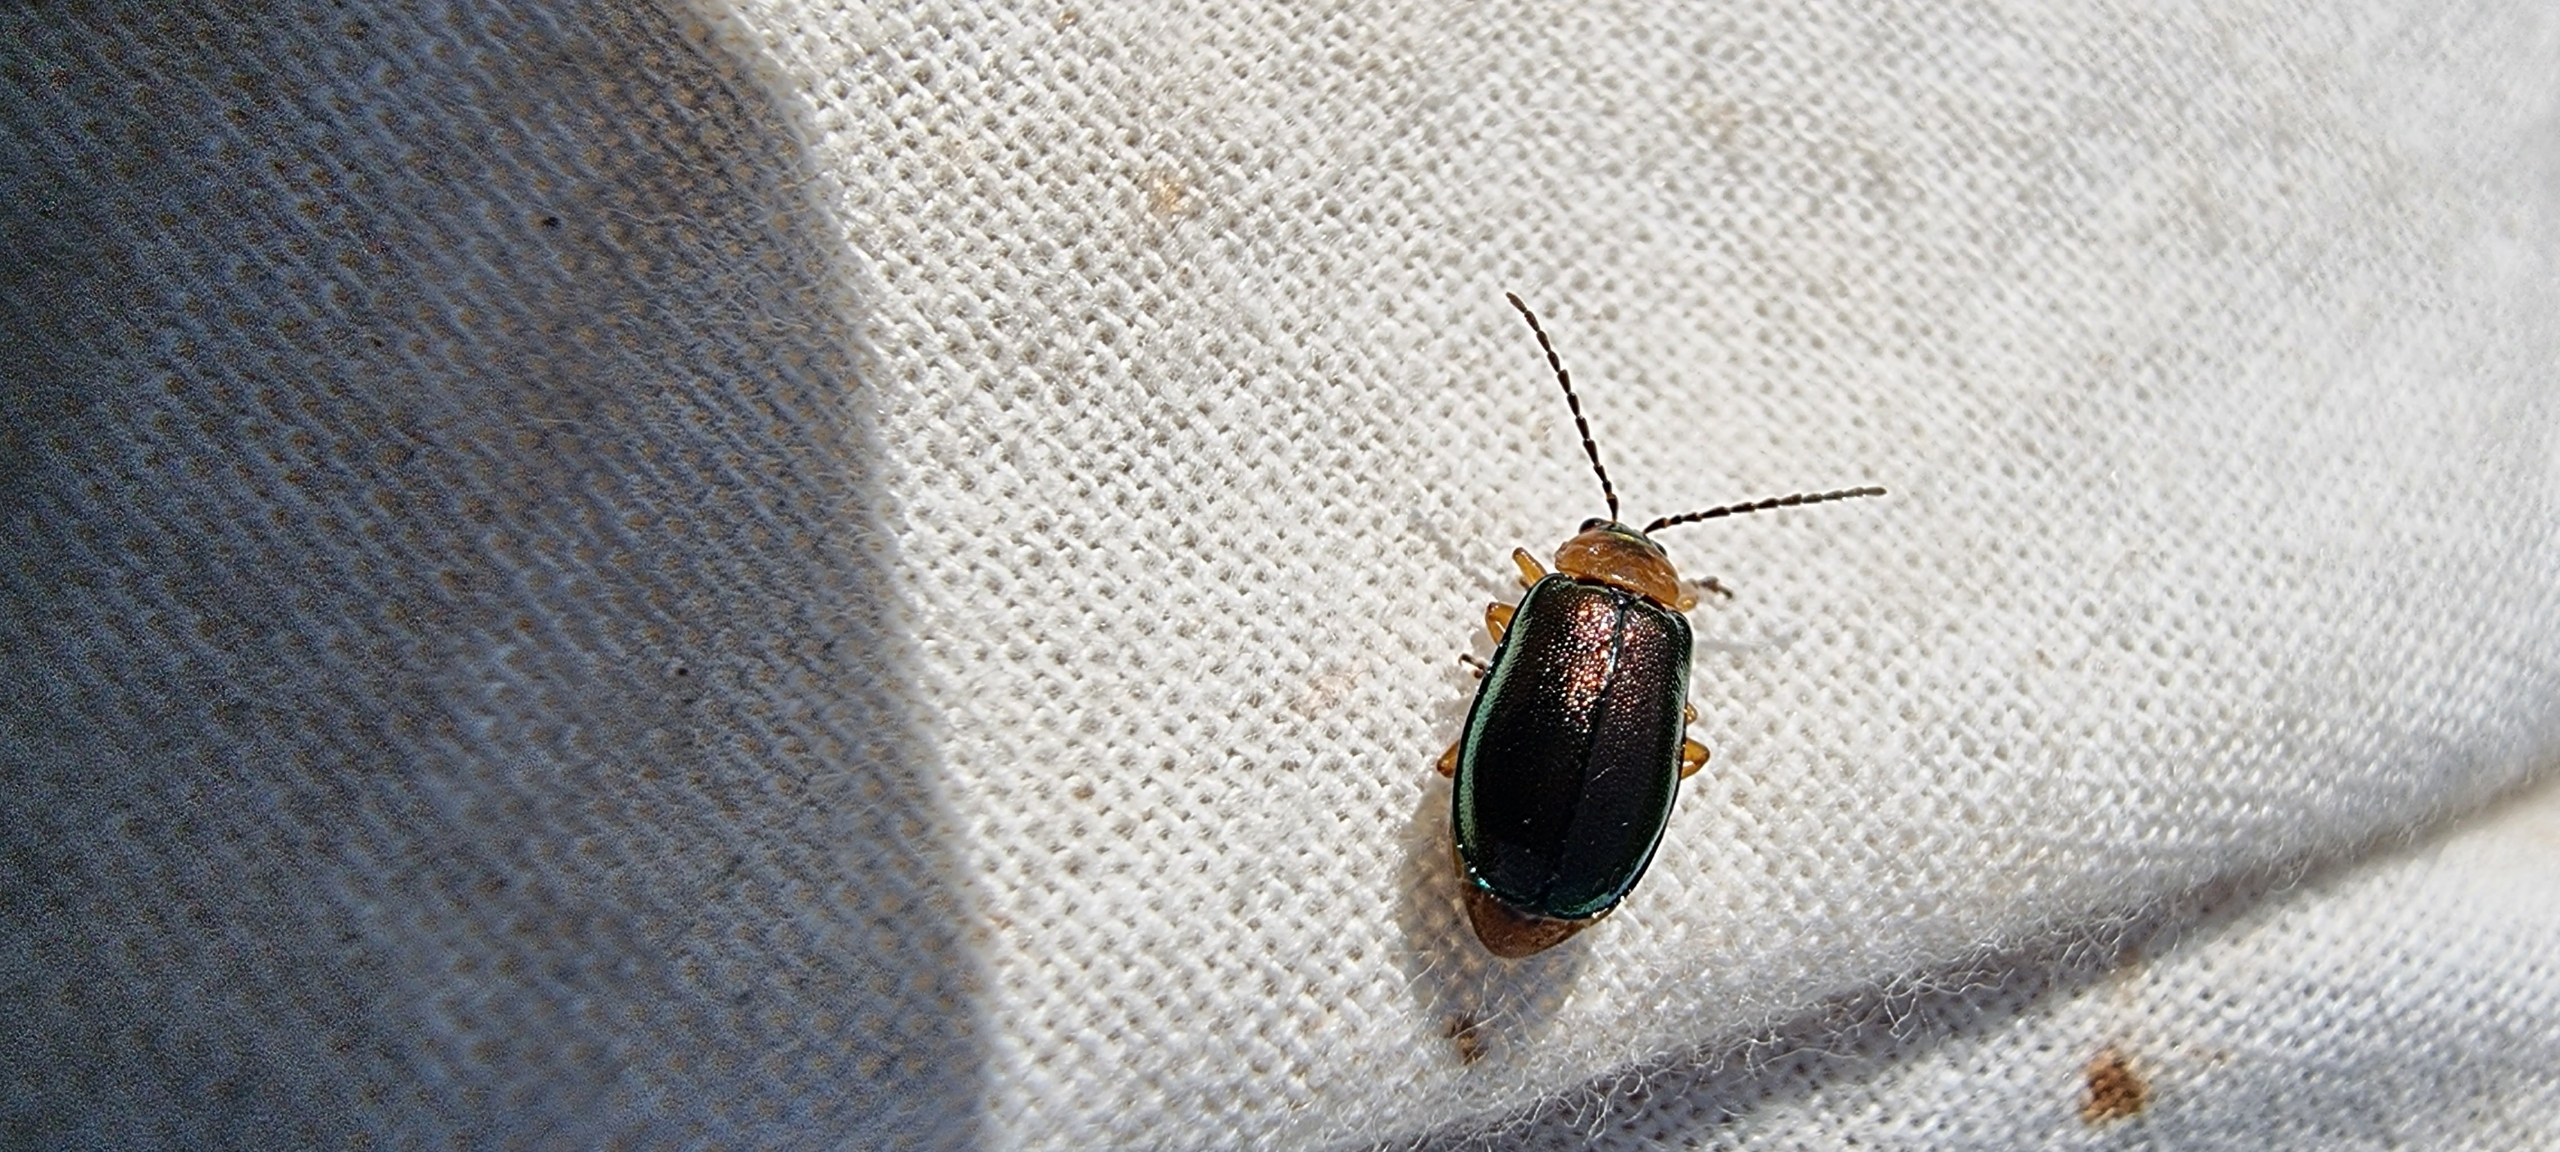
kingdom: Animalia
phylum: Arthropoda
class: Insecta
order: Coleoptera
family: Chrysomelidae
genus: Sermylassa
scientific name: Sermylassa halensis
